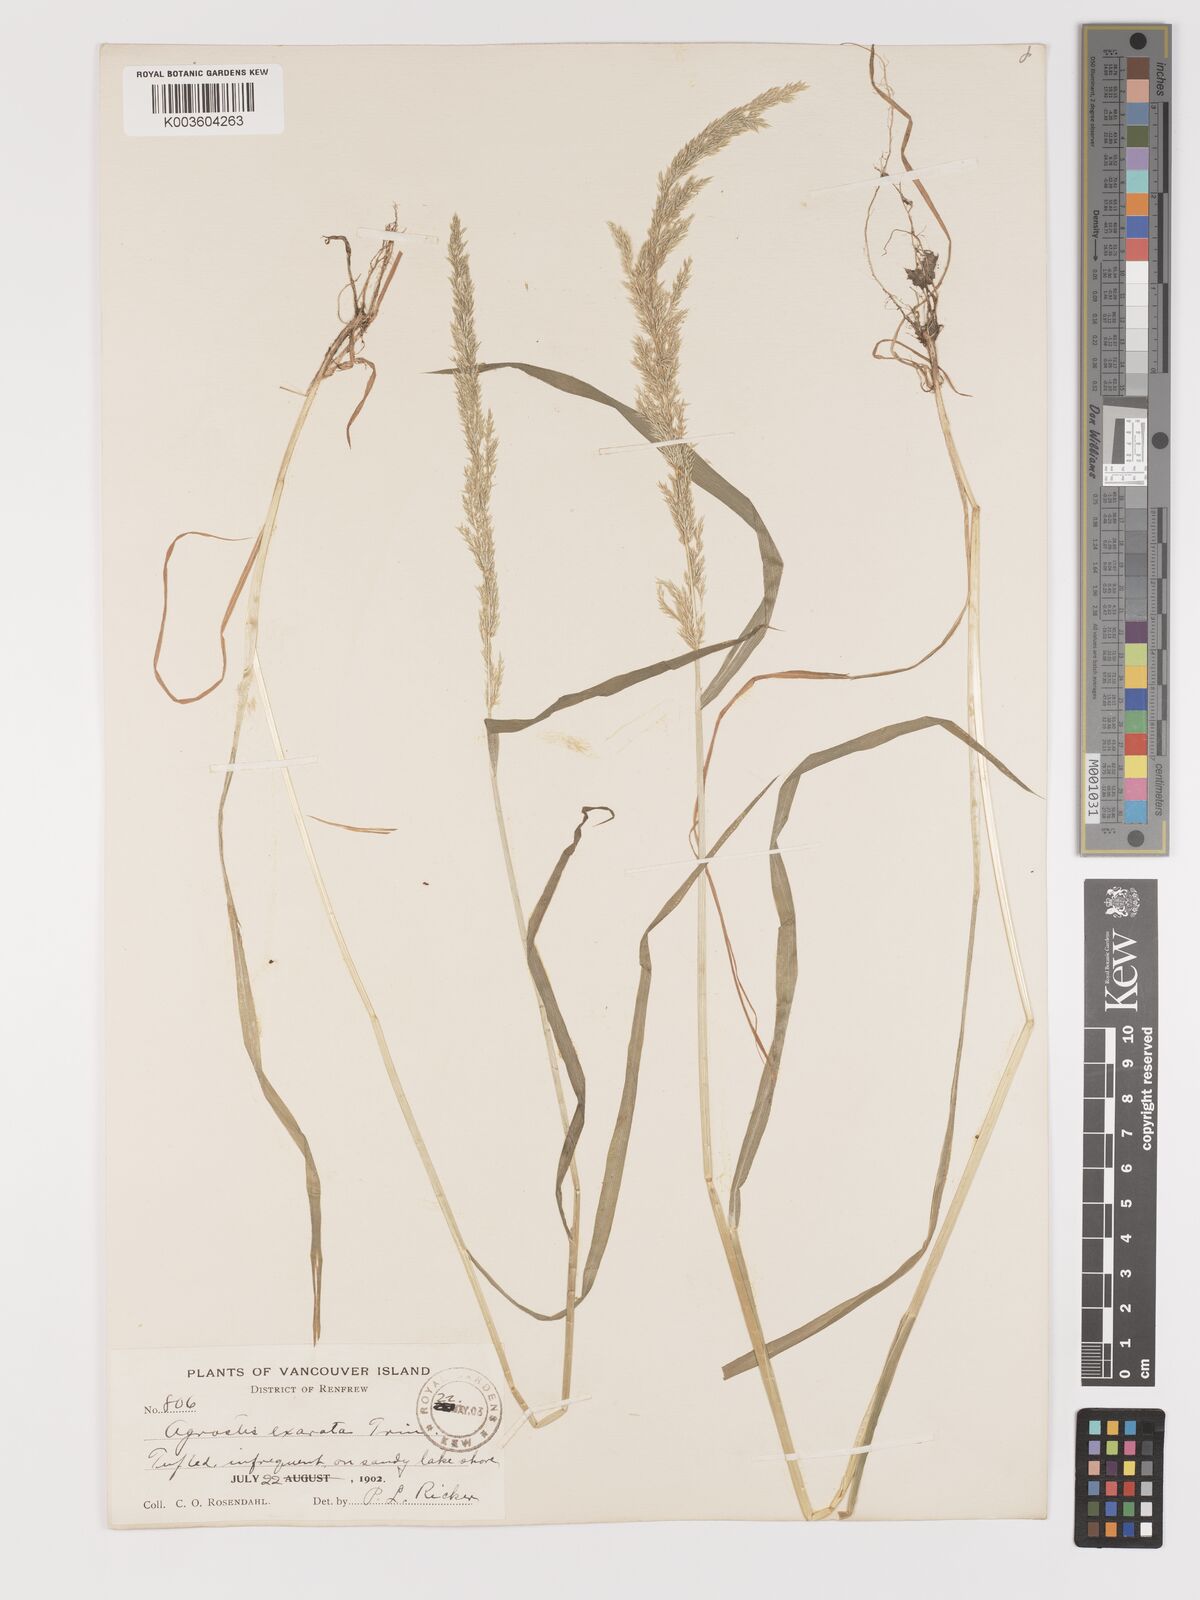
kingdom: Plantae
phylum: Tracheophyta
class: Liliopsida
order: Poales
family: Poaceae
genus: Agrostis
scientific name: Agrostis exarata
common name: Spike bent
